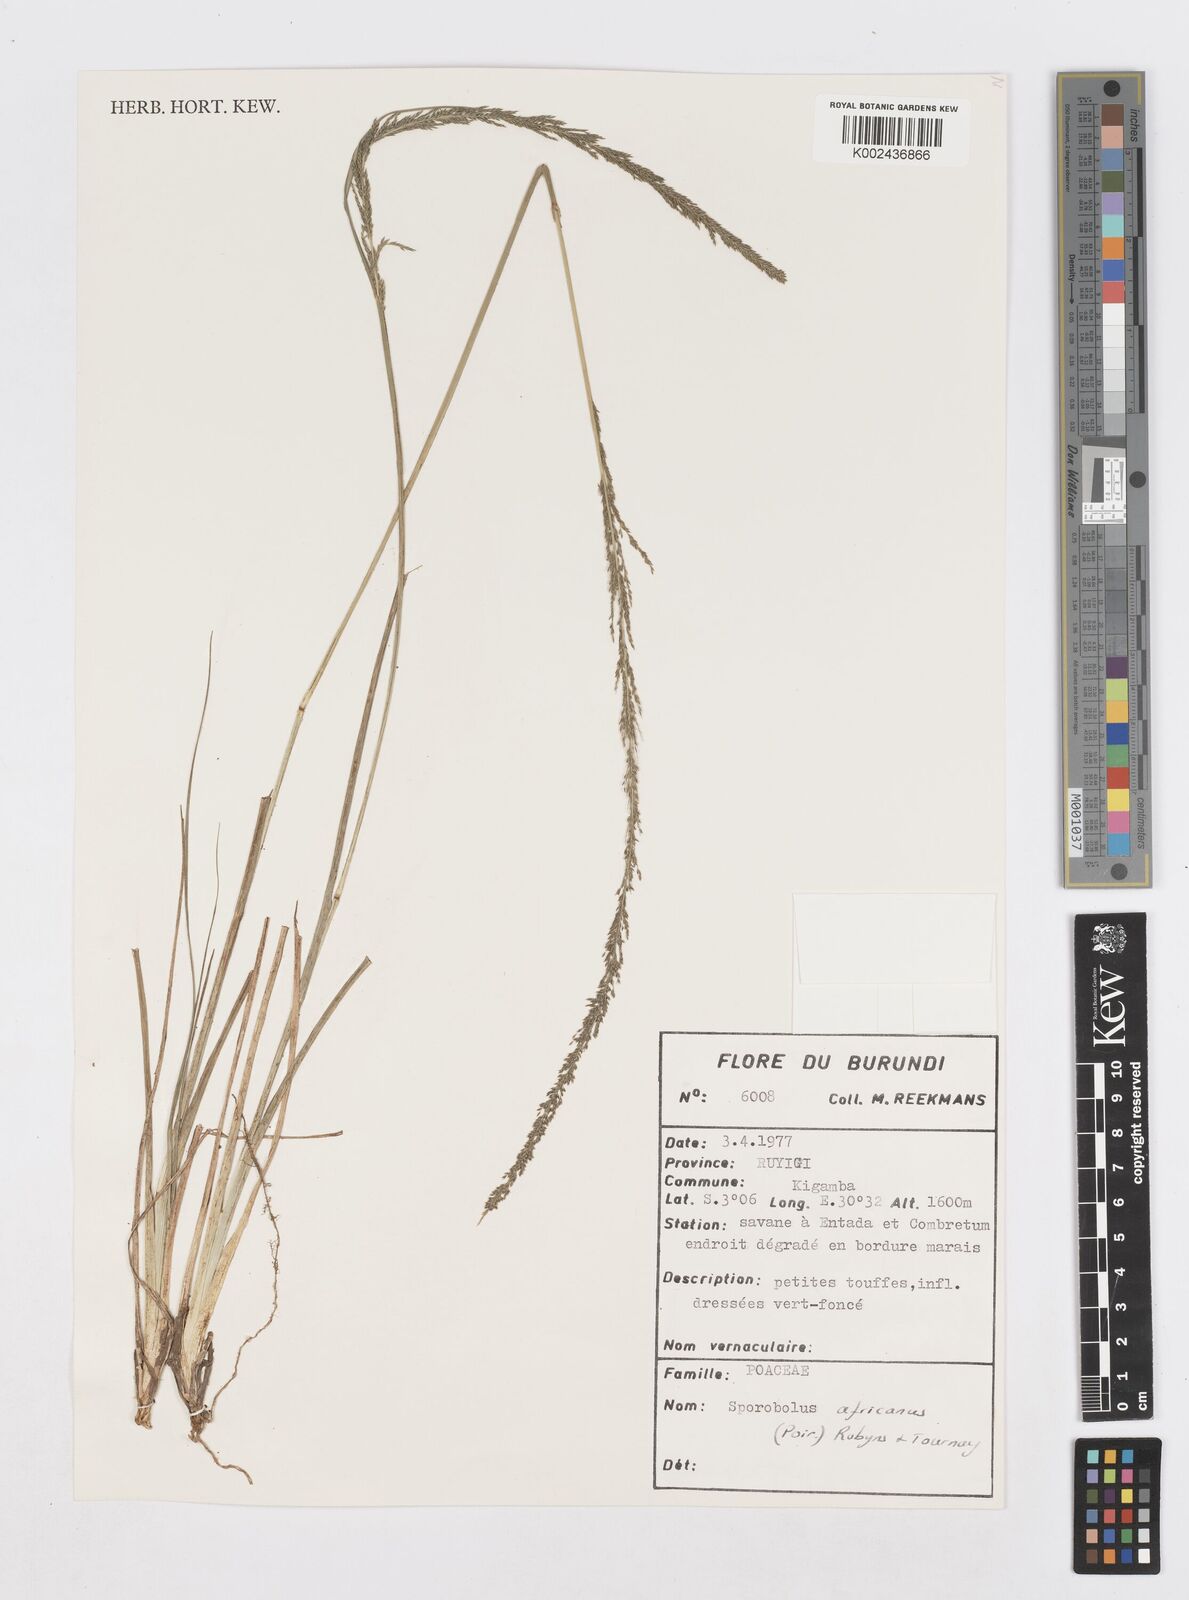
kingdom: Plantae
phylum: Tracheophyta
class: Liliopsida
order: Poales
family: Poaceae
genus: Sporobolus
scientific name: Sporobolus africanus
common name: African dropseed
